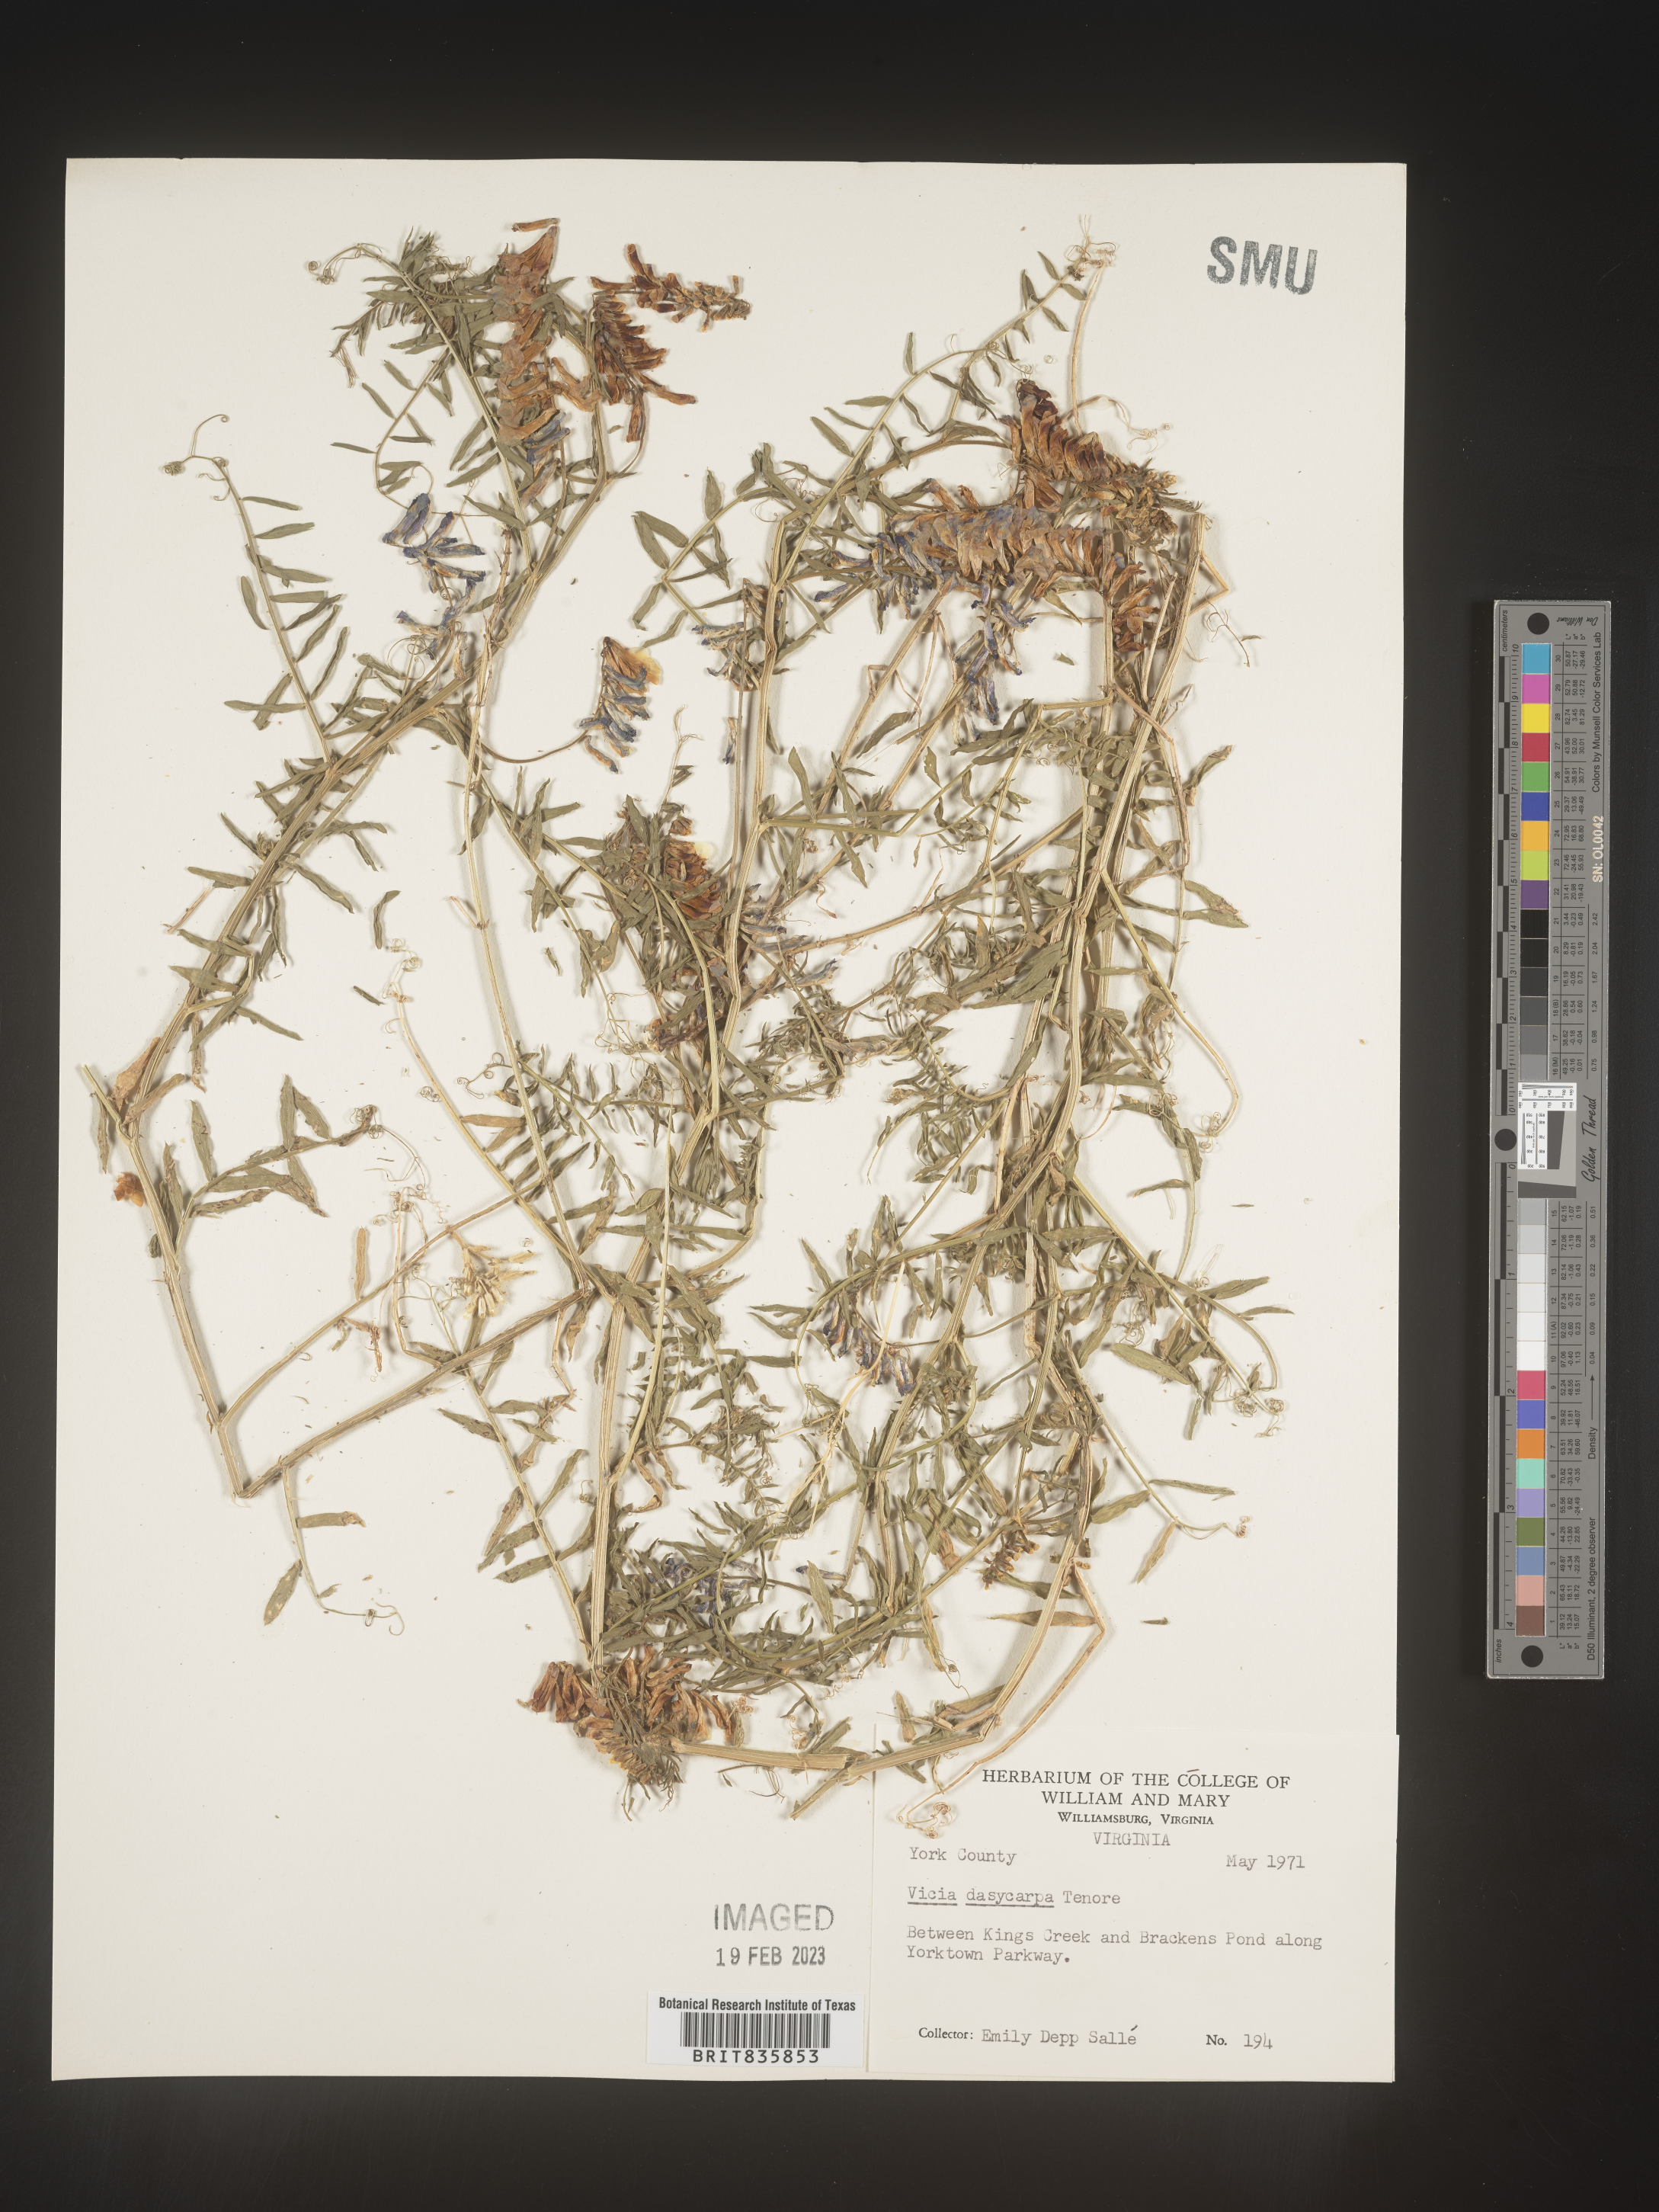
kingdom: Plantae
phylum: Tracheophyta
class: Magnoliopsida
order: Fabales
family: Fabaceae
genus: Vicia
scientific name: Vicia villosa
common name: Fodder vetch
